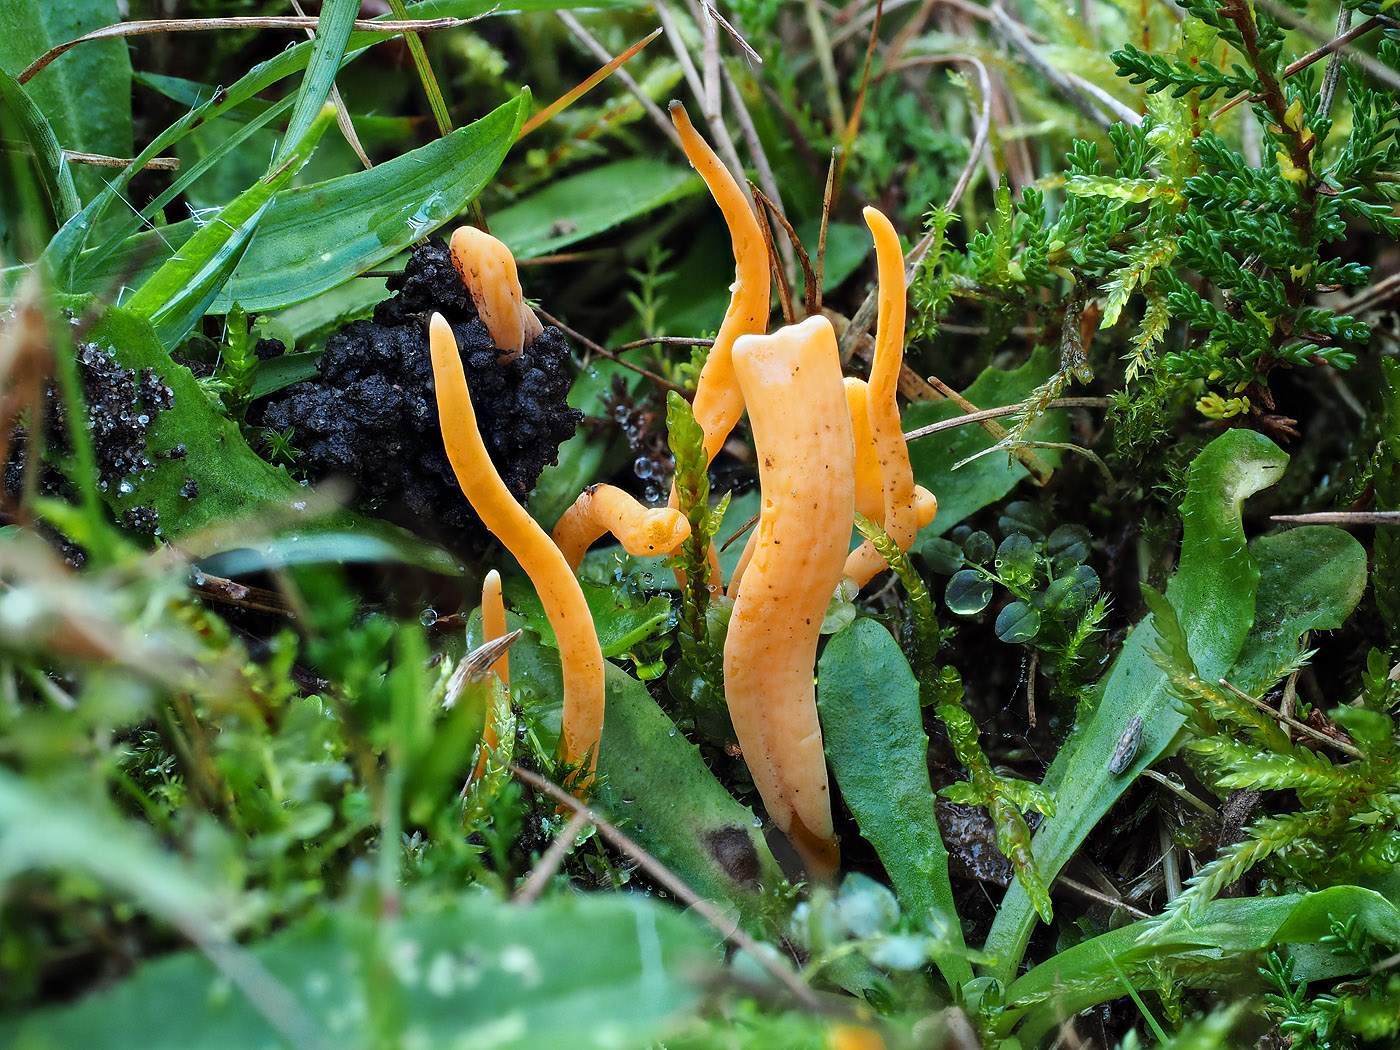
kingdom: Fungi
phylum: Basidiomycota
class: Agaricomycetes
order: Agaricales
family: Clavariaceae
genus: Clavulinopsis
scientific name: Clavulinopsis luteoalba
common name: abrikos-køllesvamp
